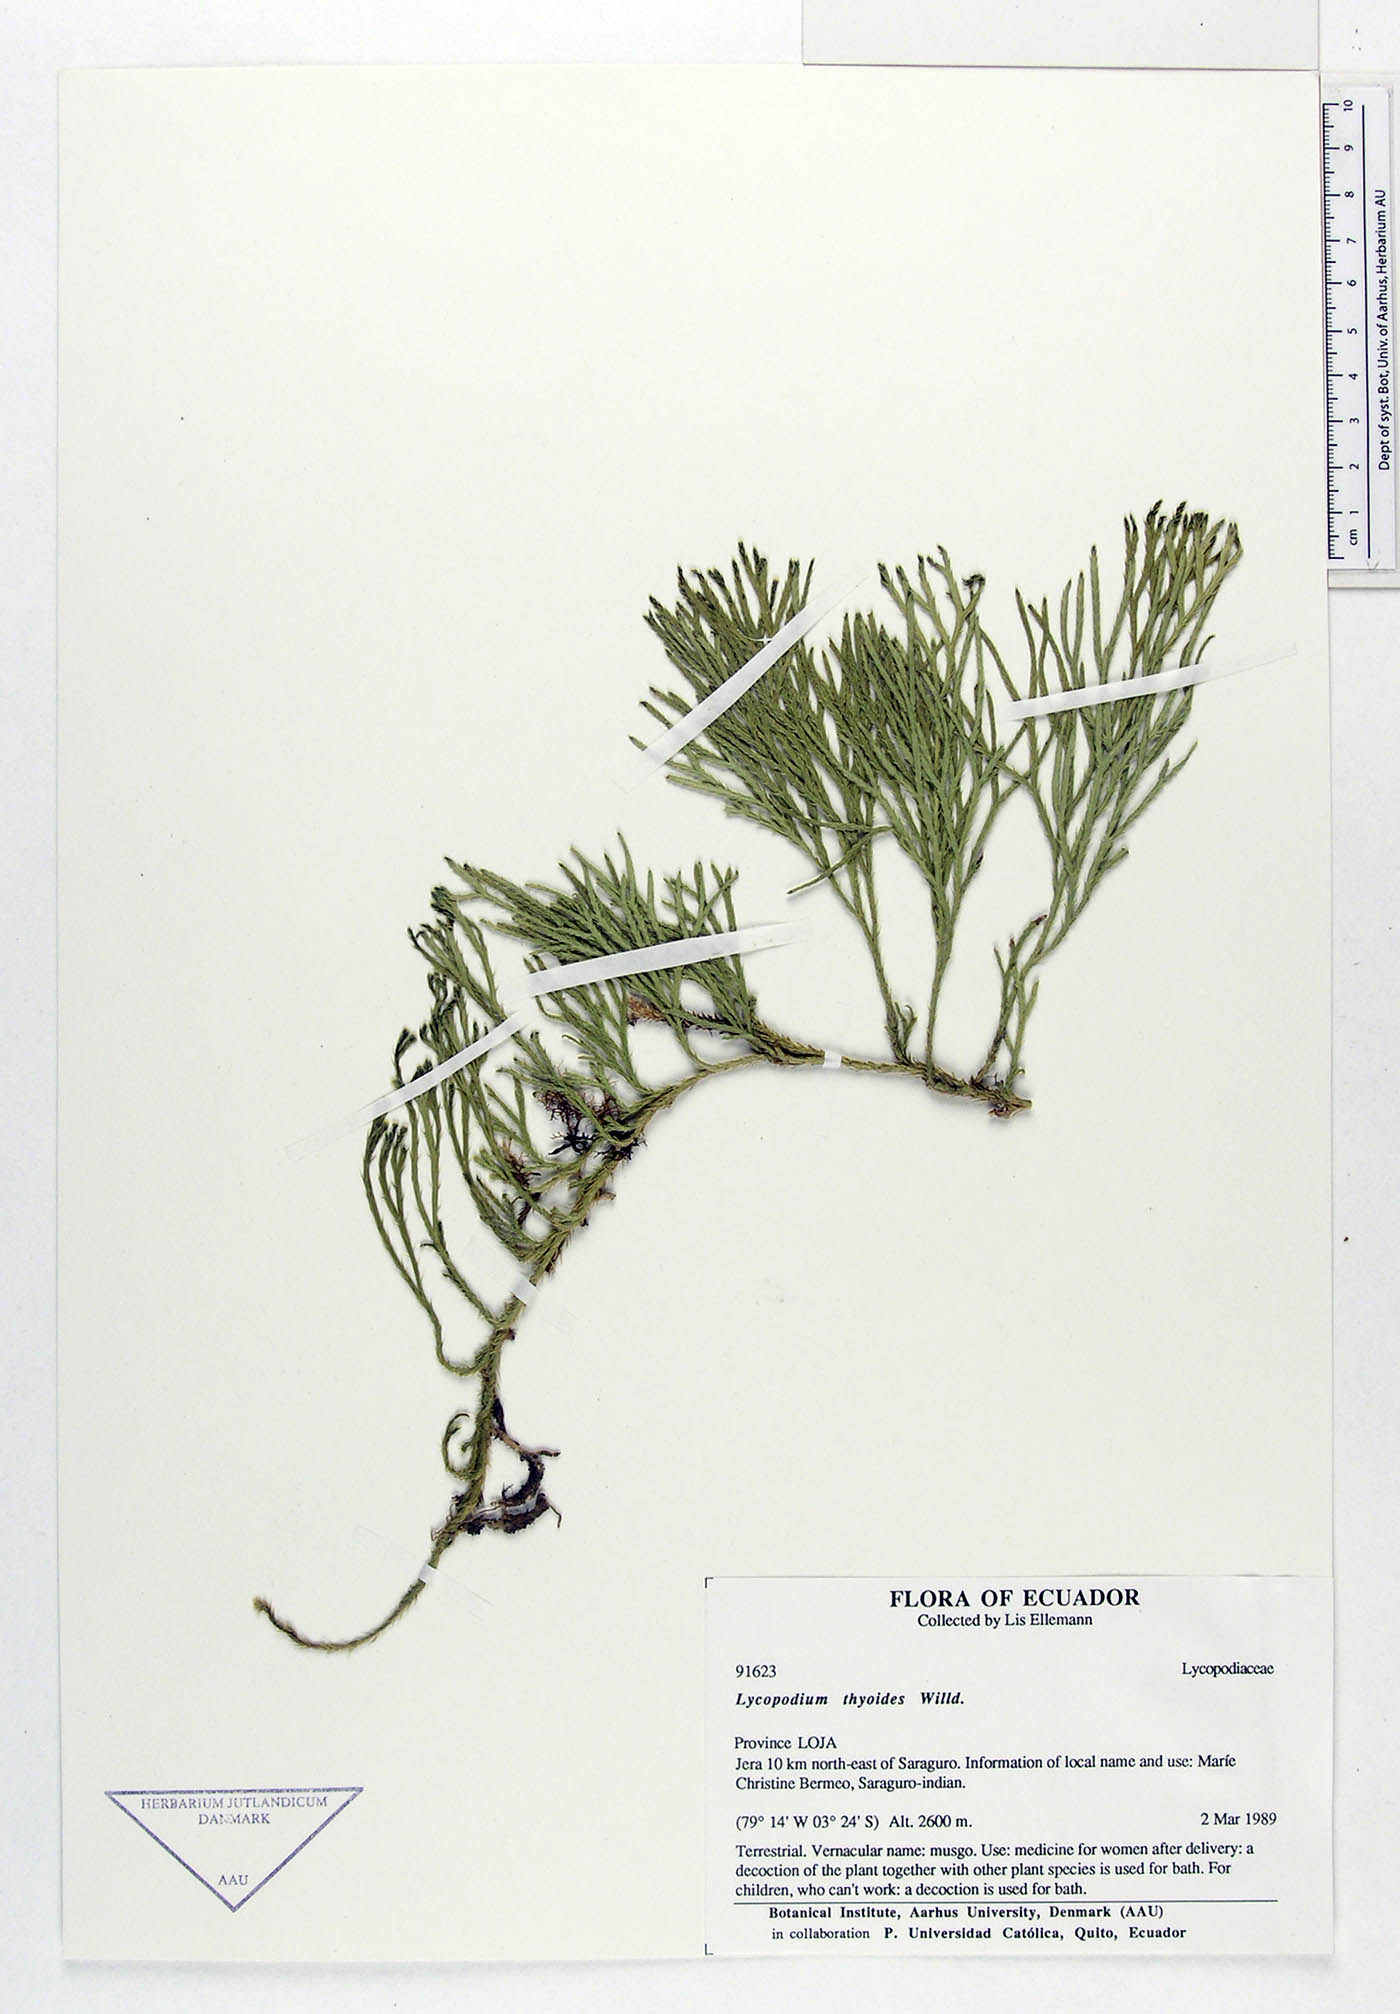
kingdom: Plantae
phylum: Tracheophyta
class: Lycopodiopsida
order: Lycopodiales
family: Lycopodiaceae
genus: Diphasiastrum
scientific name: Diphasiastrum thyoides
